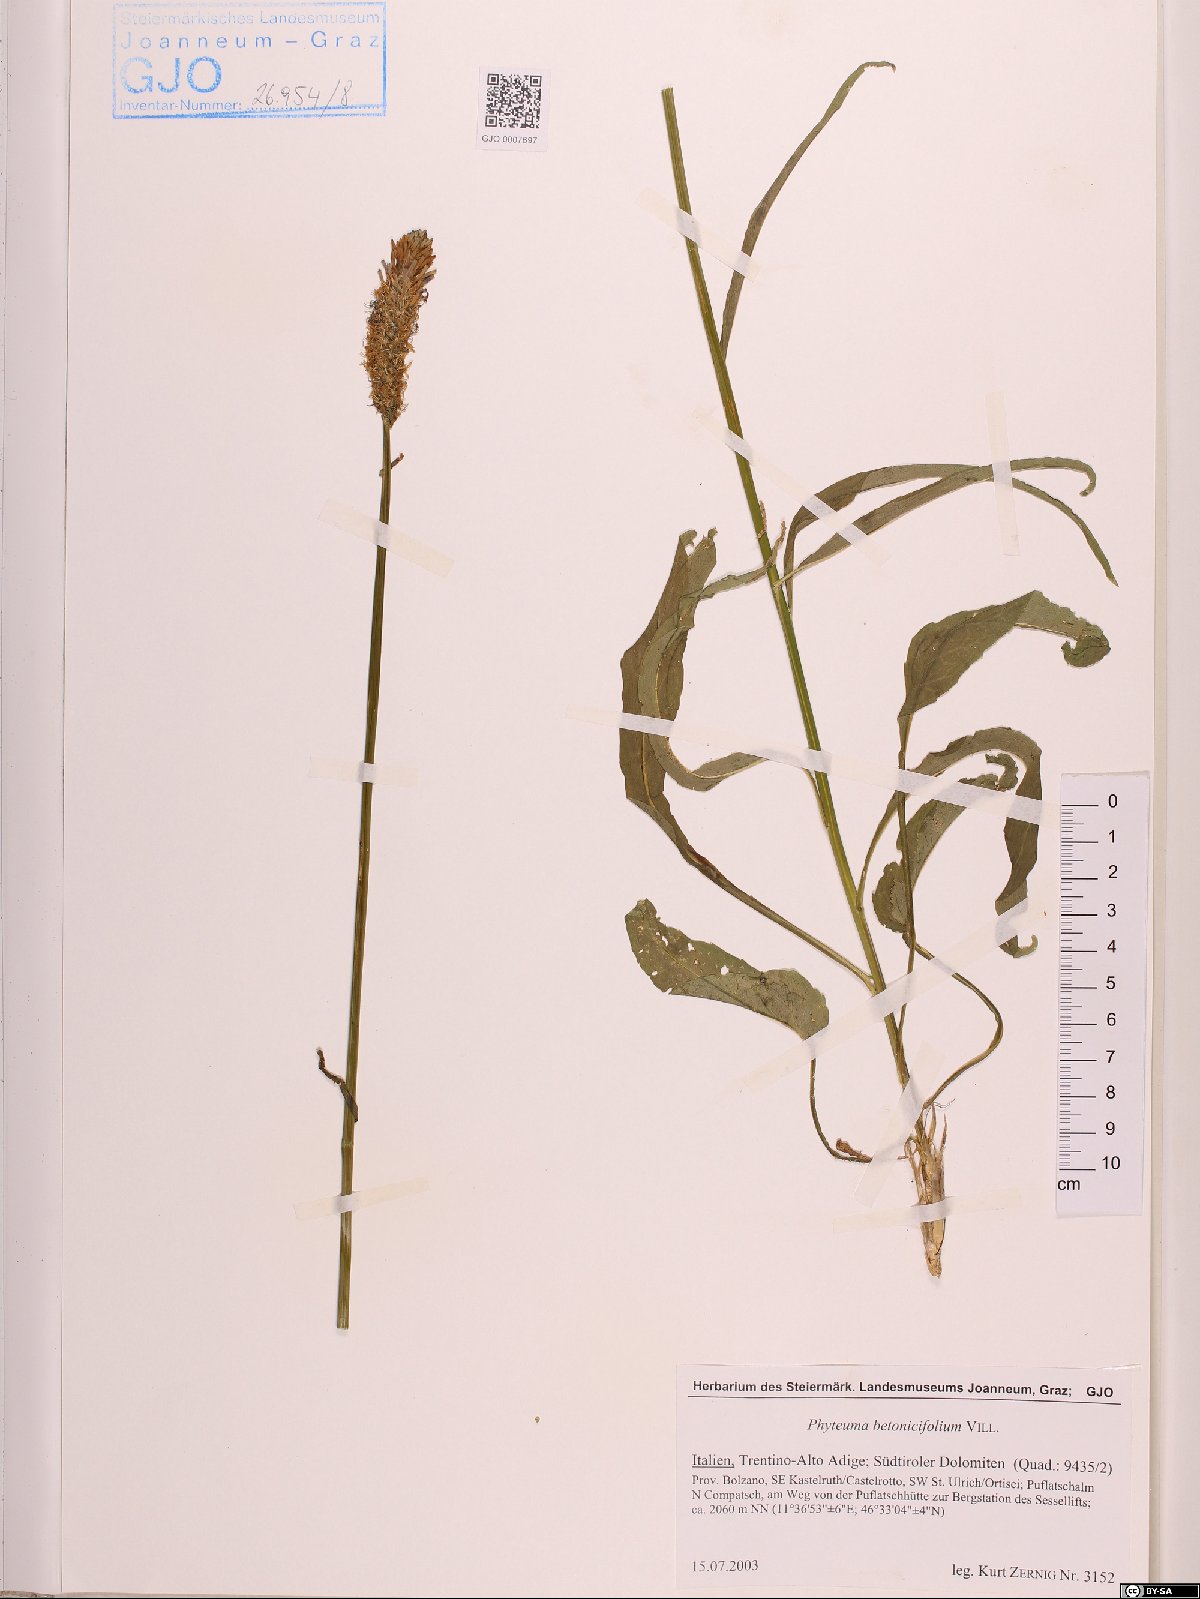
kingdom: Plantae
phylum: Tracheophyta
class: Magnoliopsida
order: Asterales
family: Campanulaceae
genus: Phyteuma
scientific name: Phyteuma betonicifolium
